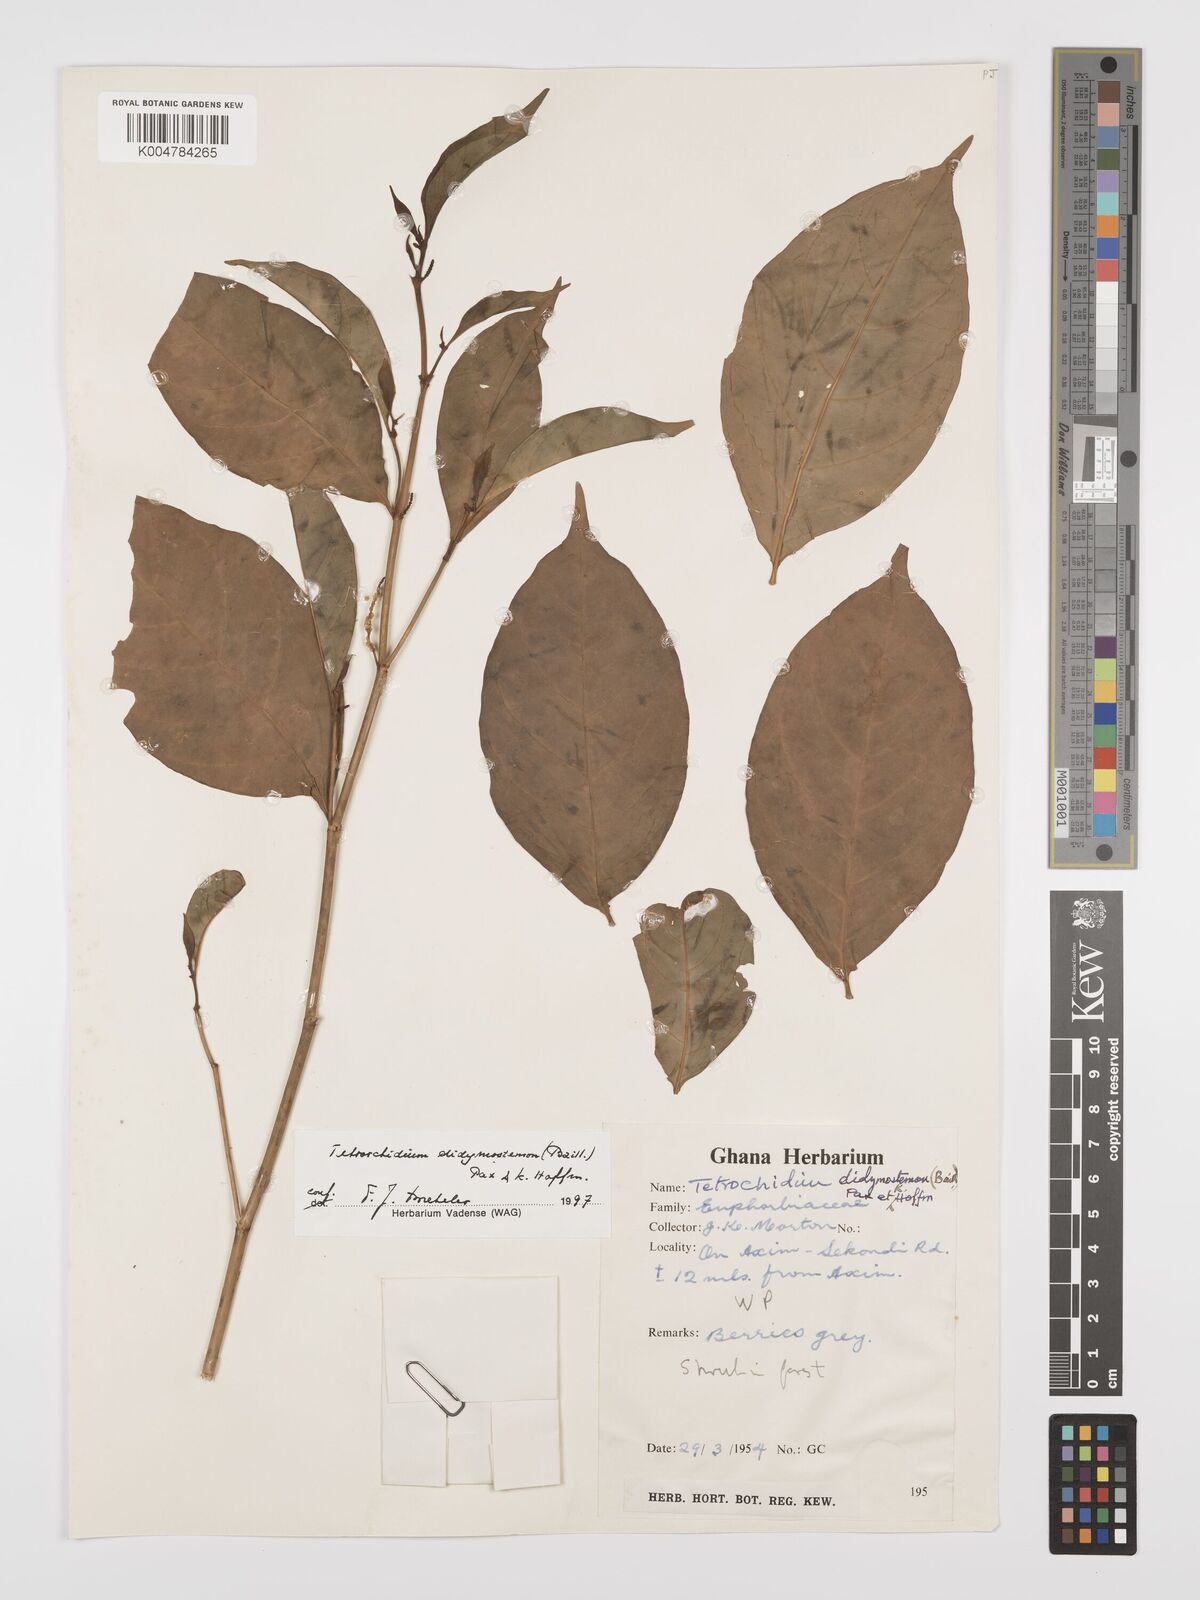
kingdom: Plantae
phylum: Tracheophyta
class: Magnoliopsida
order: Malpighiales
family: Euphorbiaceae
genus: Tetrorchidium
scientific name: Tetrorchidium didymostemon
